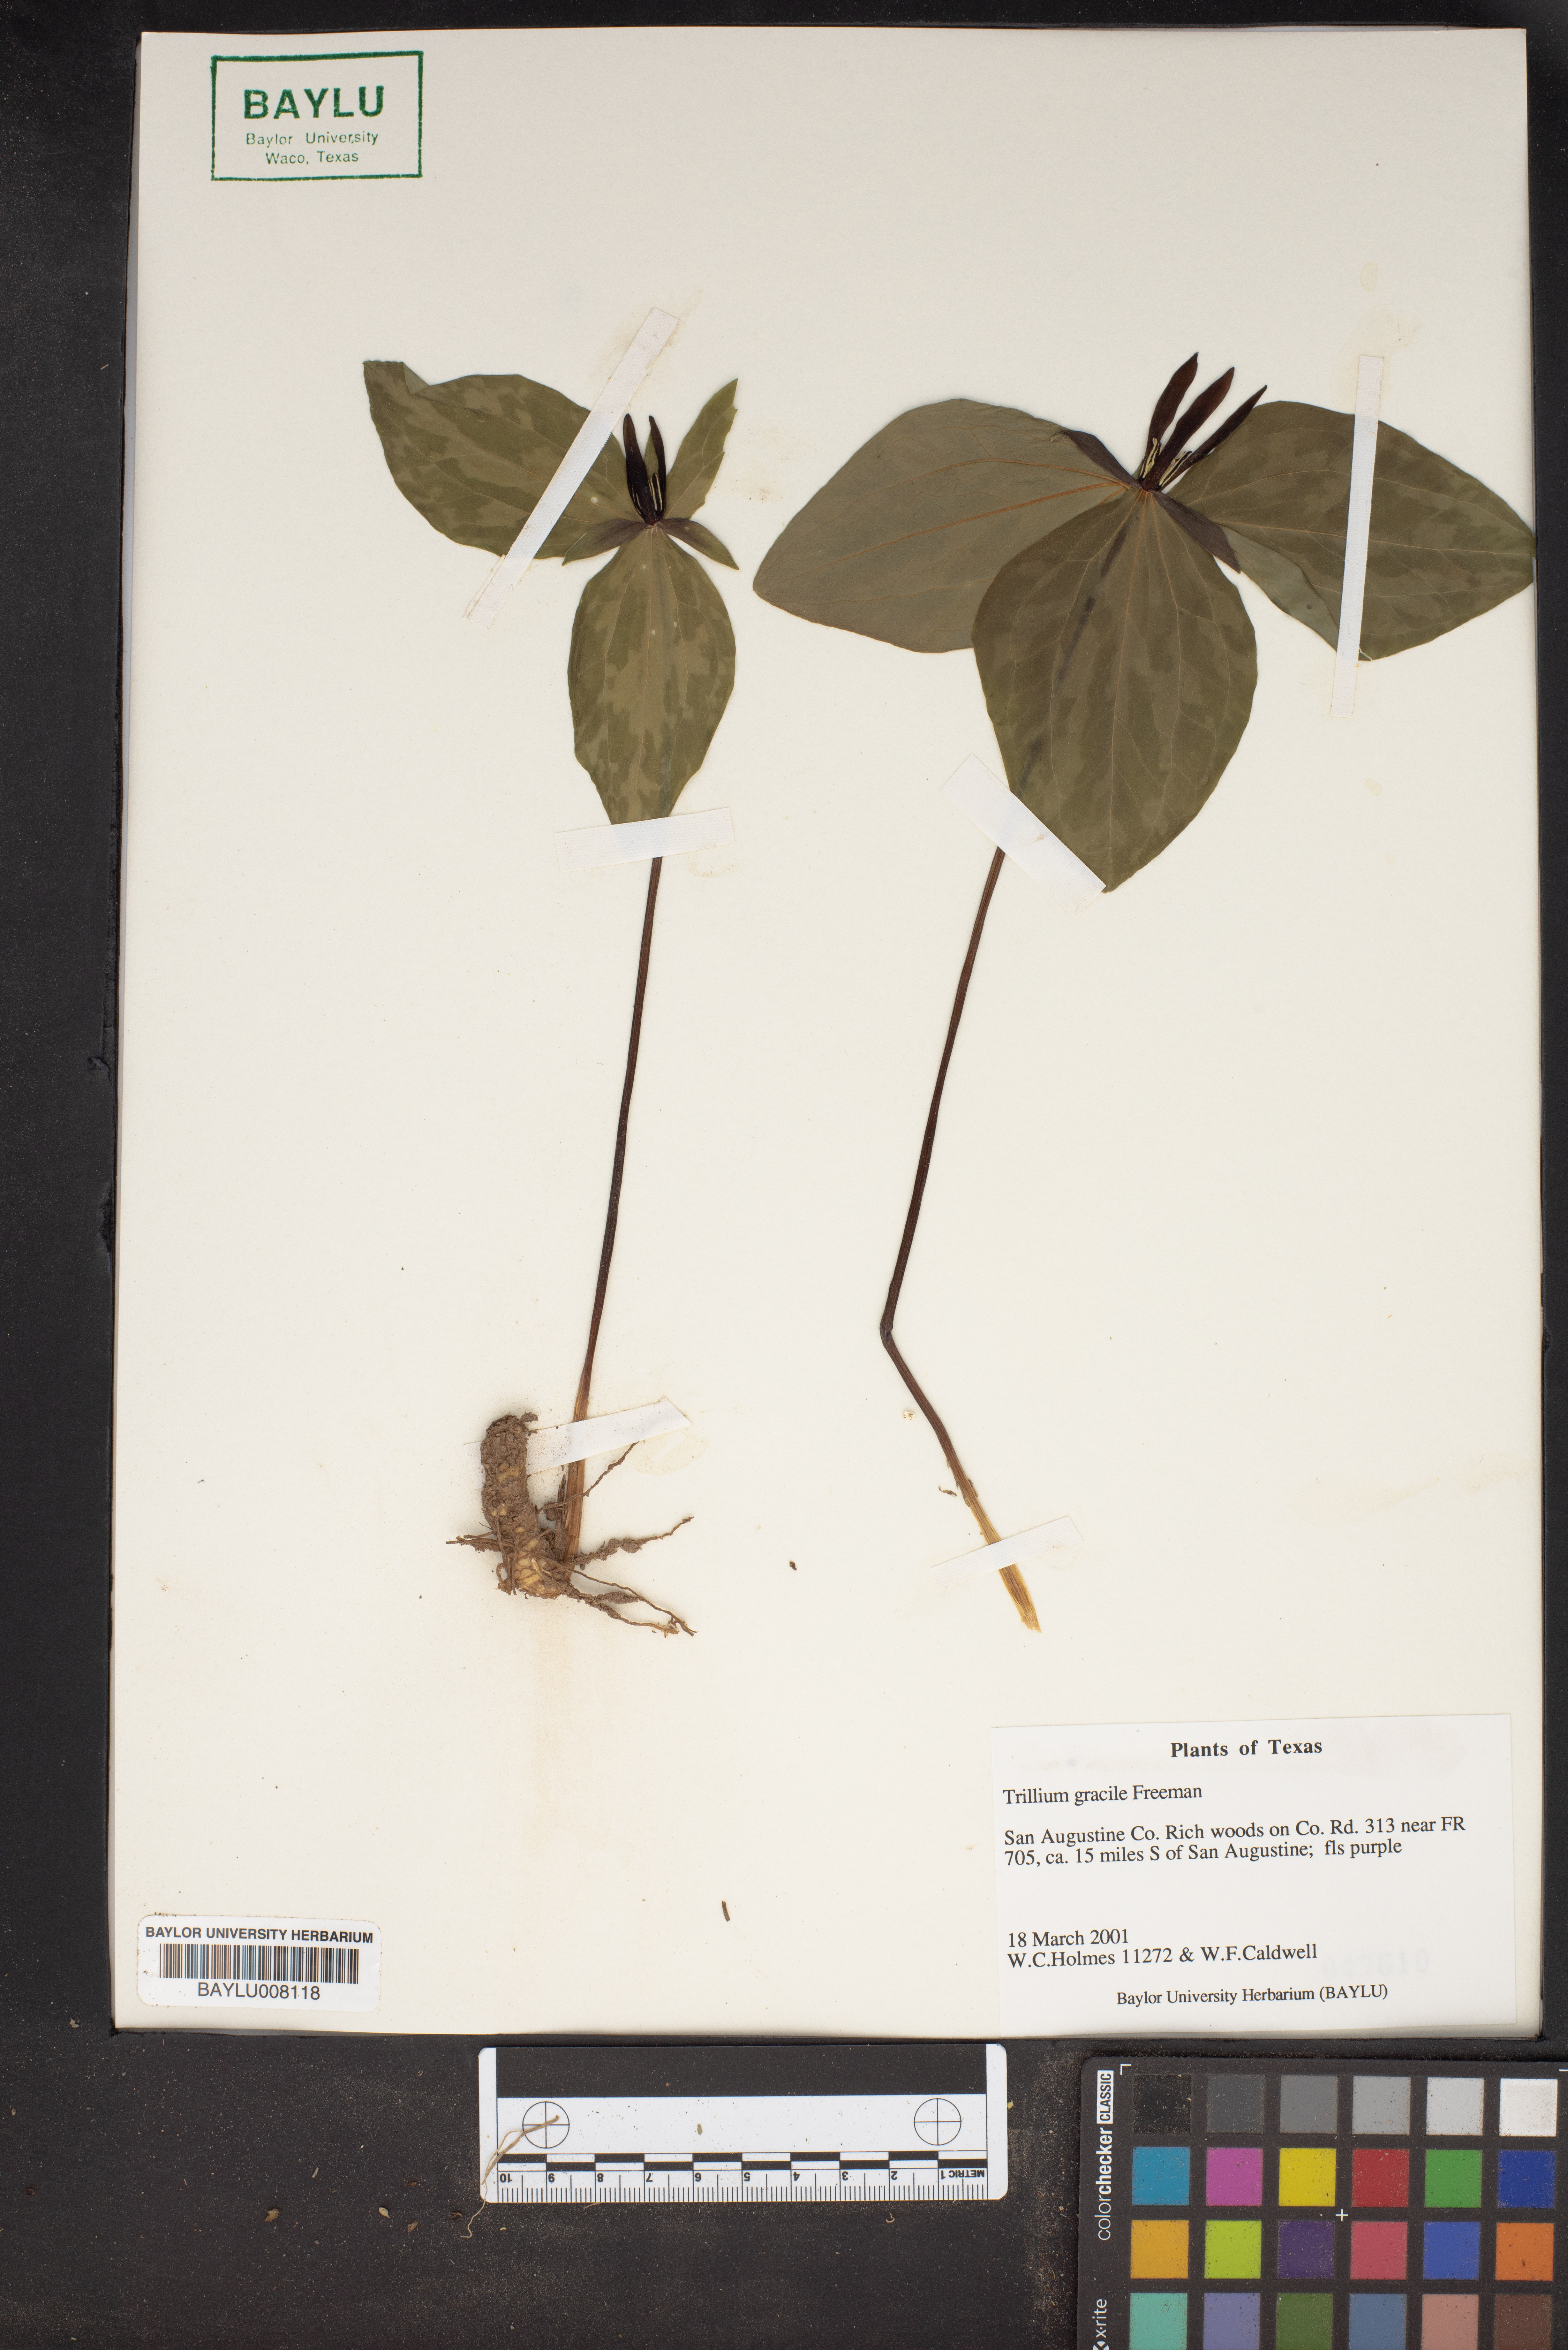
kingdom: Plantae
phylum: Tracheophyta
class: Liliopsida
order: Liliales
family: Melanthiaceae
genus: Trillium
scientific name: Trillium gracile
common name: Graceful trillium
